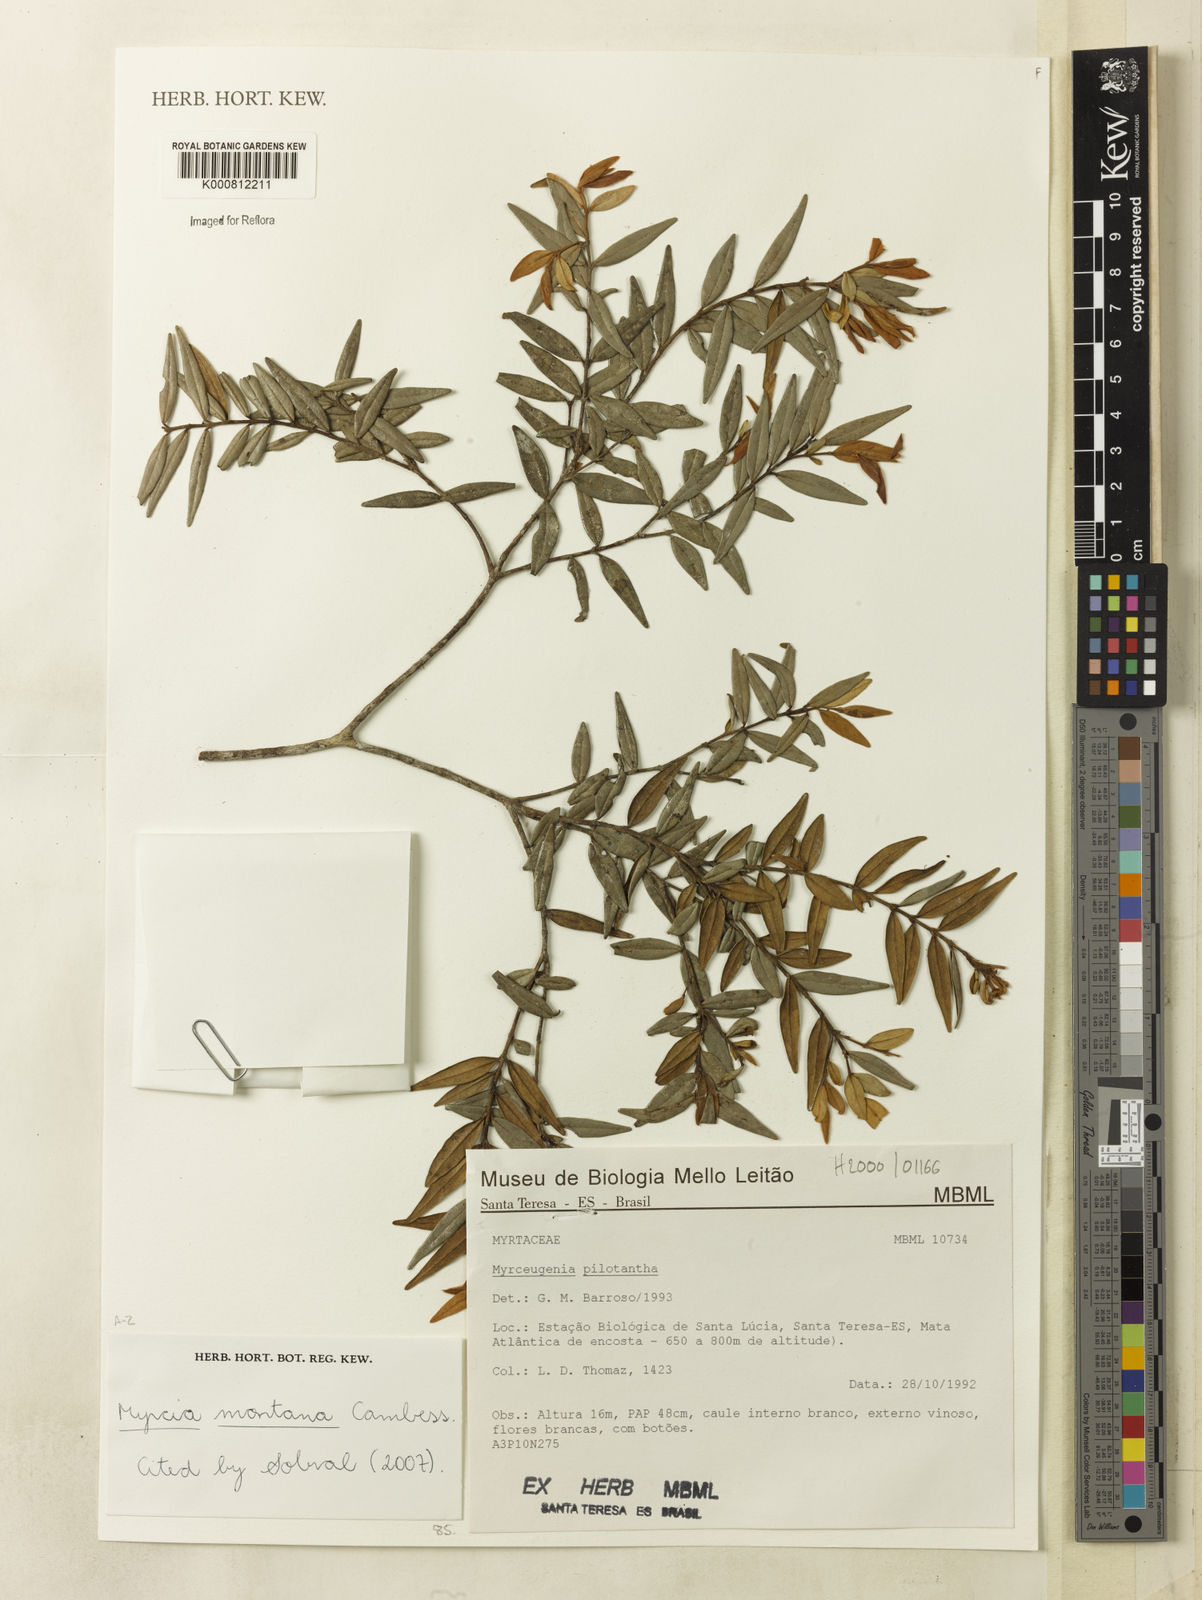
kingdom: Plantae
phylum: Tracheophyta
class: Magnoliopsida
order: Myrtales
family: Myrtaceae
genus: Myrcia
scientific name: Myrcia montana
